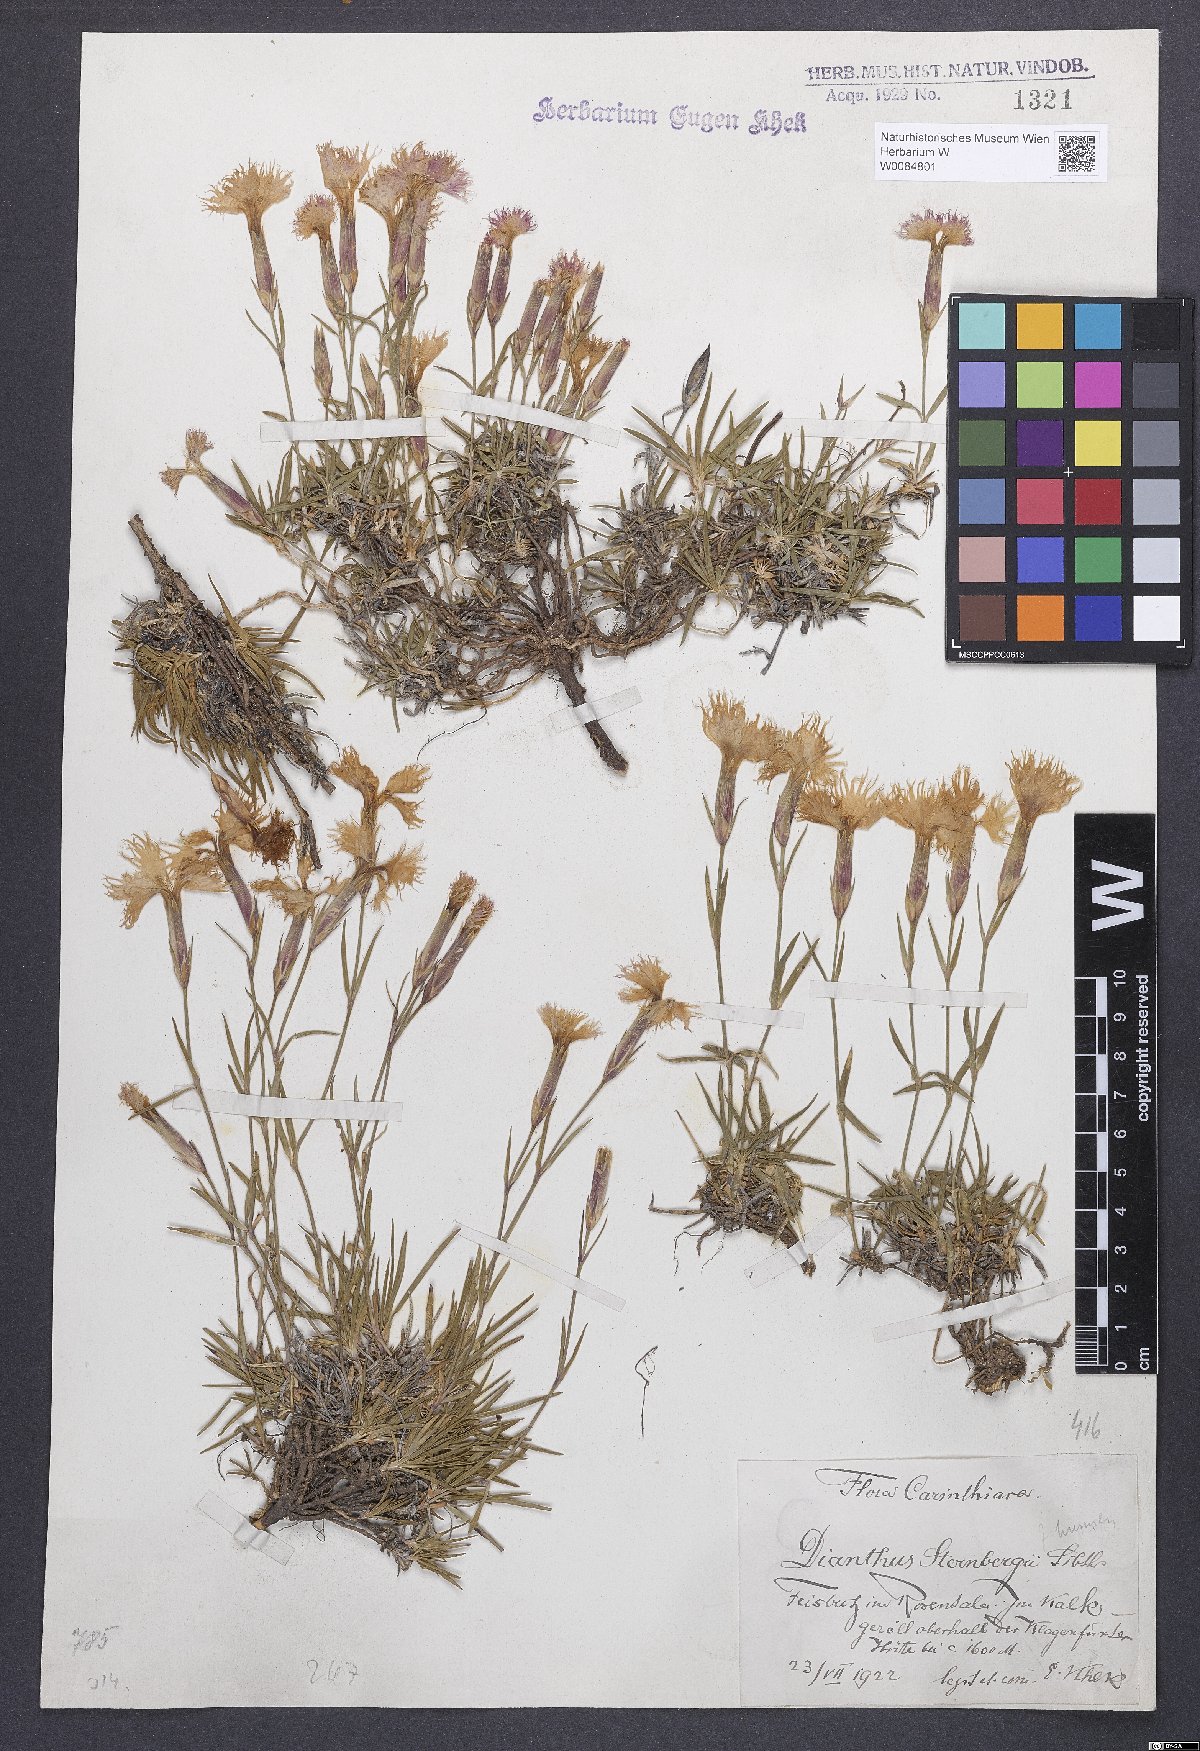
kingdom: Plantae
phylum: Tracheophyta
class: Magnoliopsida
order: Caryophyllales
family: Caryophyllaceae
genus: Dianthus
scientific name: Dianthus monspessulanus
